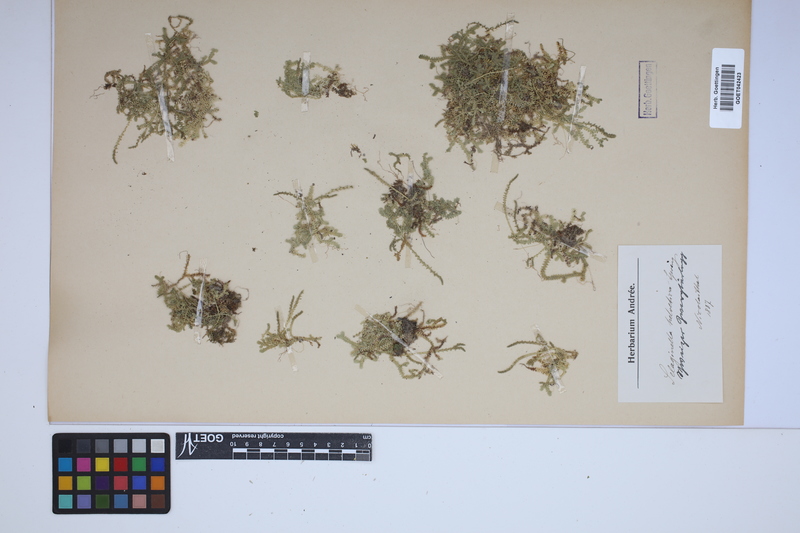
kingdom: Plantae
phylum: Tracheophyta
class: Lycopodiopsida
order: Selaginellales
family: Selaginellaceae
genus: Selaginella
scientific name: Selaginella helvetica
